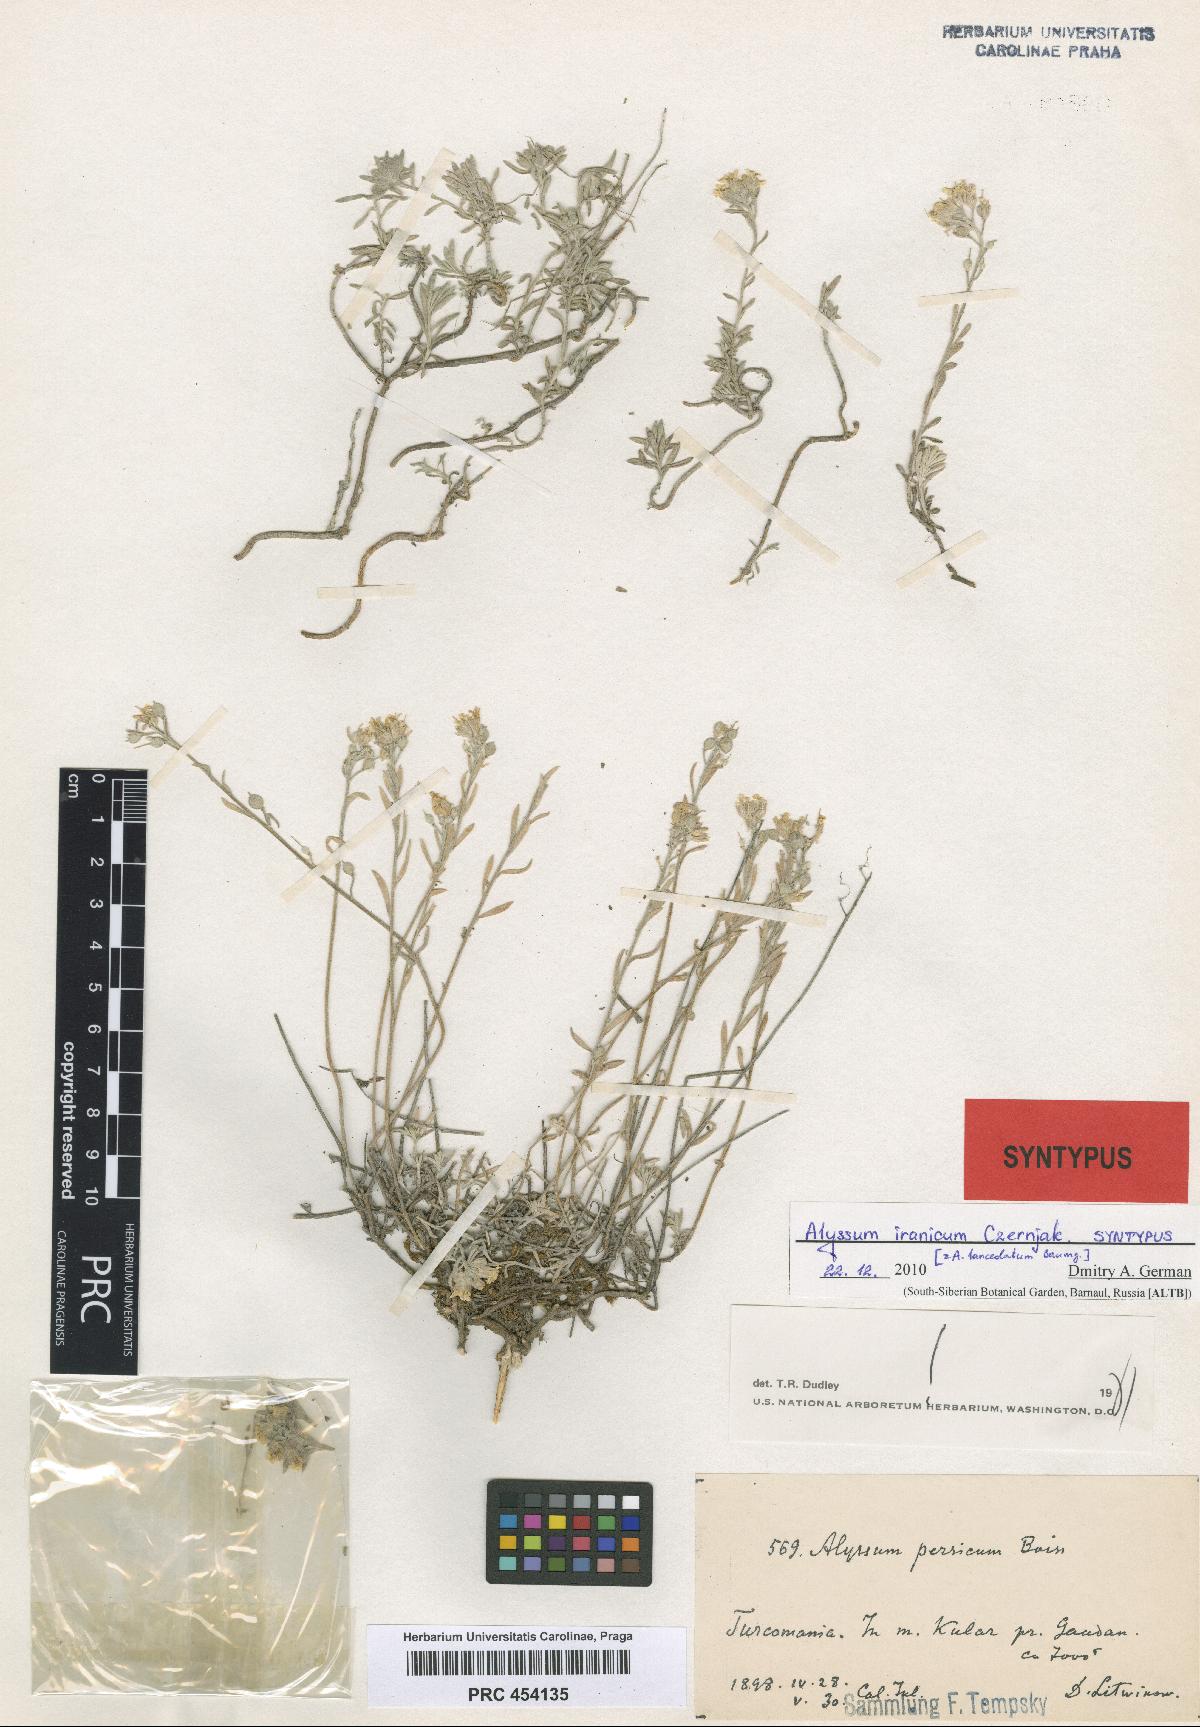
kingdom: Plantae
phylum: Tracheophyta
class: Magnoliopsida
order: Brassicales
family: Brassicaceae
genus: Alyssum
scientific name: Alyssum lanceolatum
